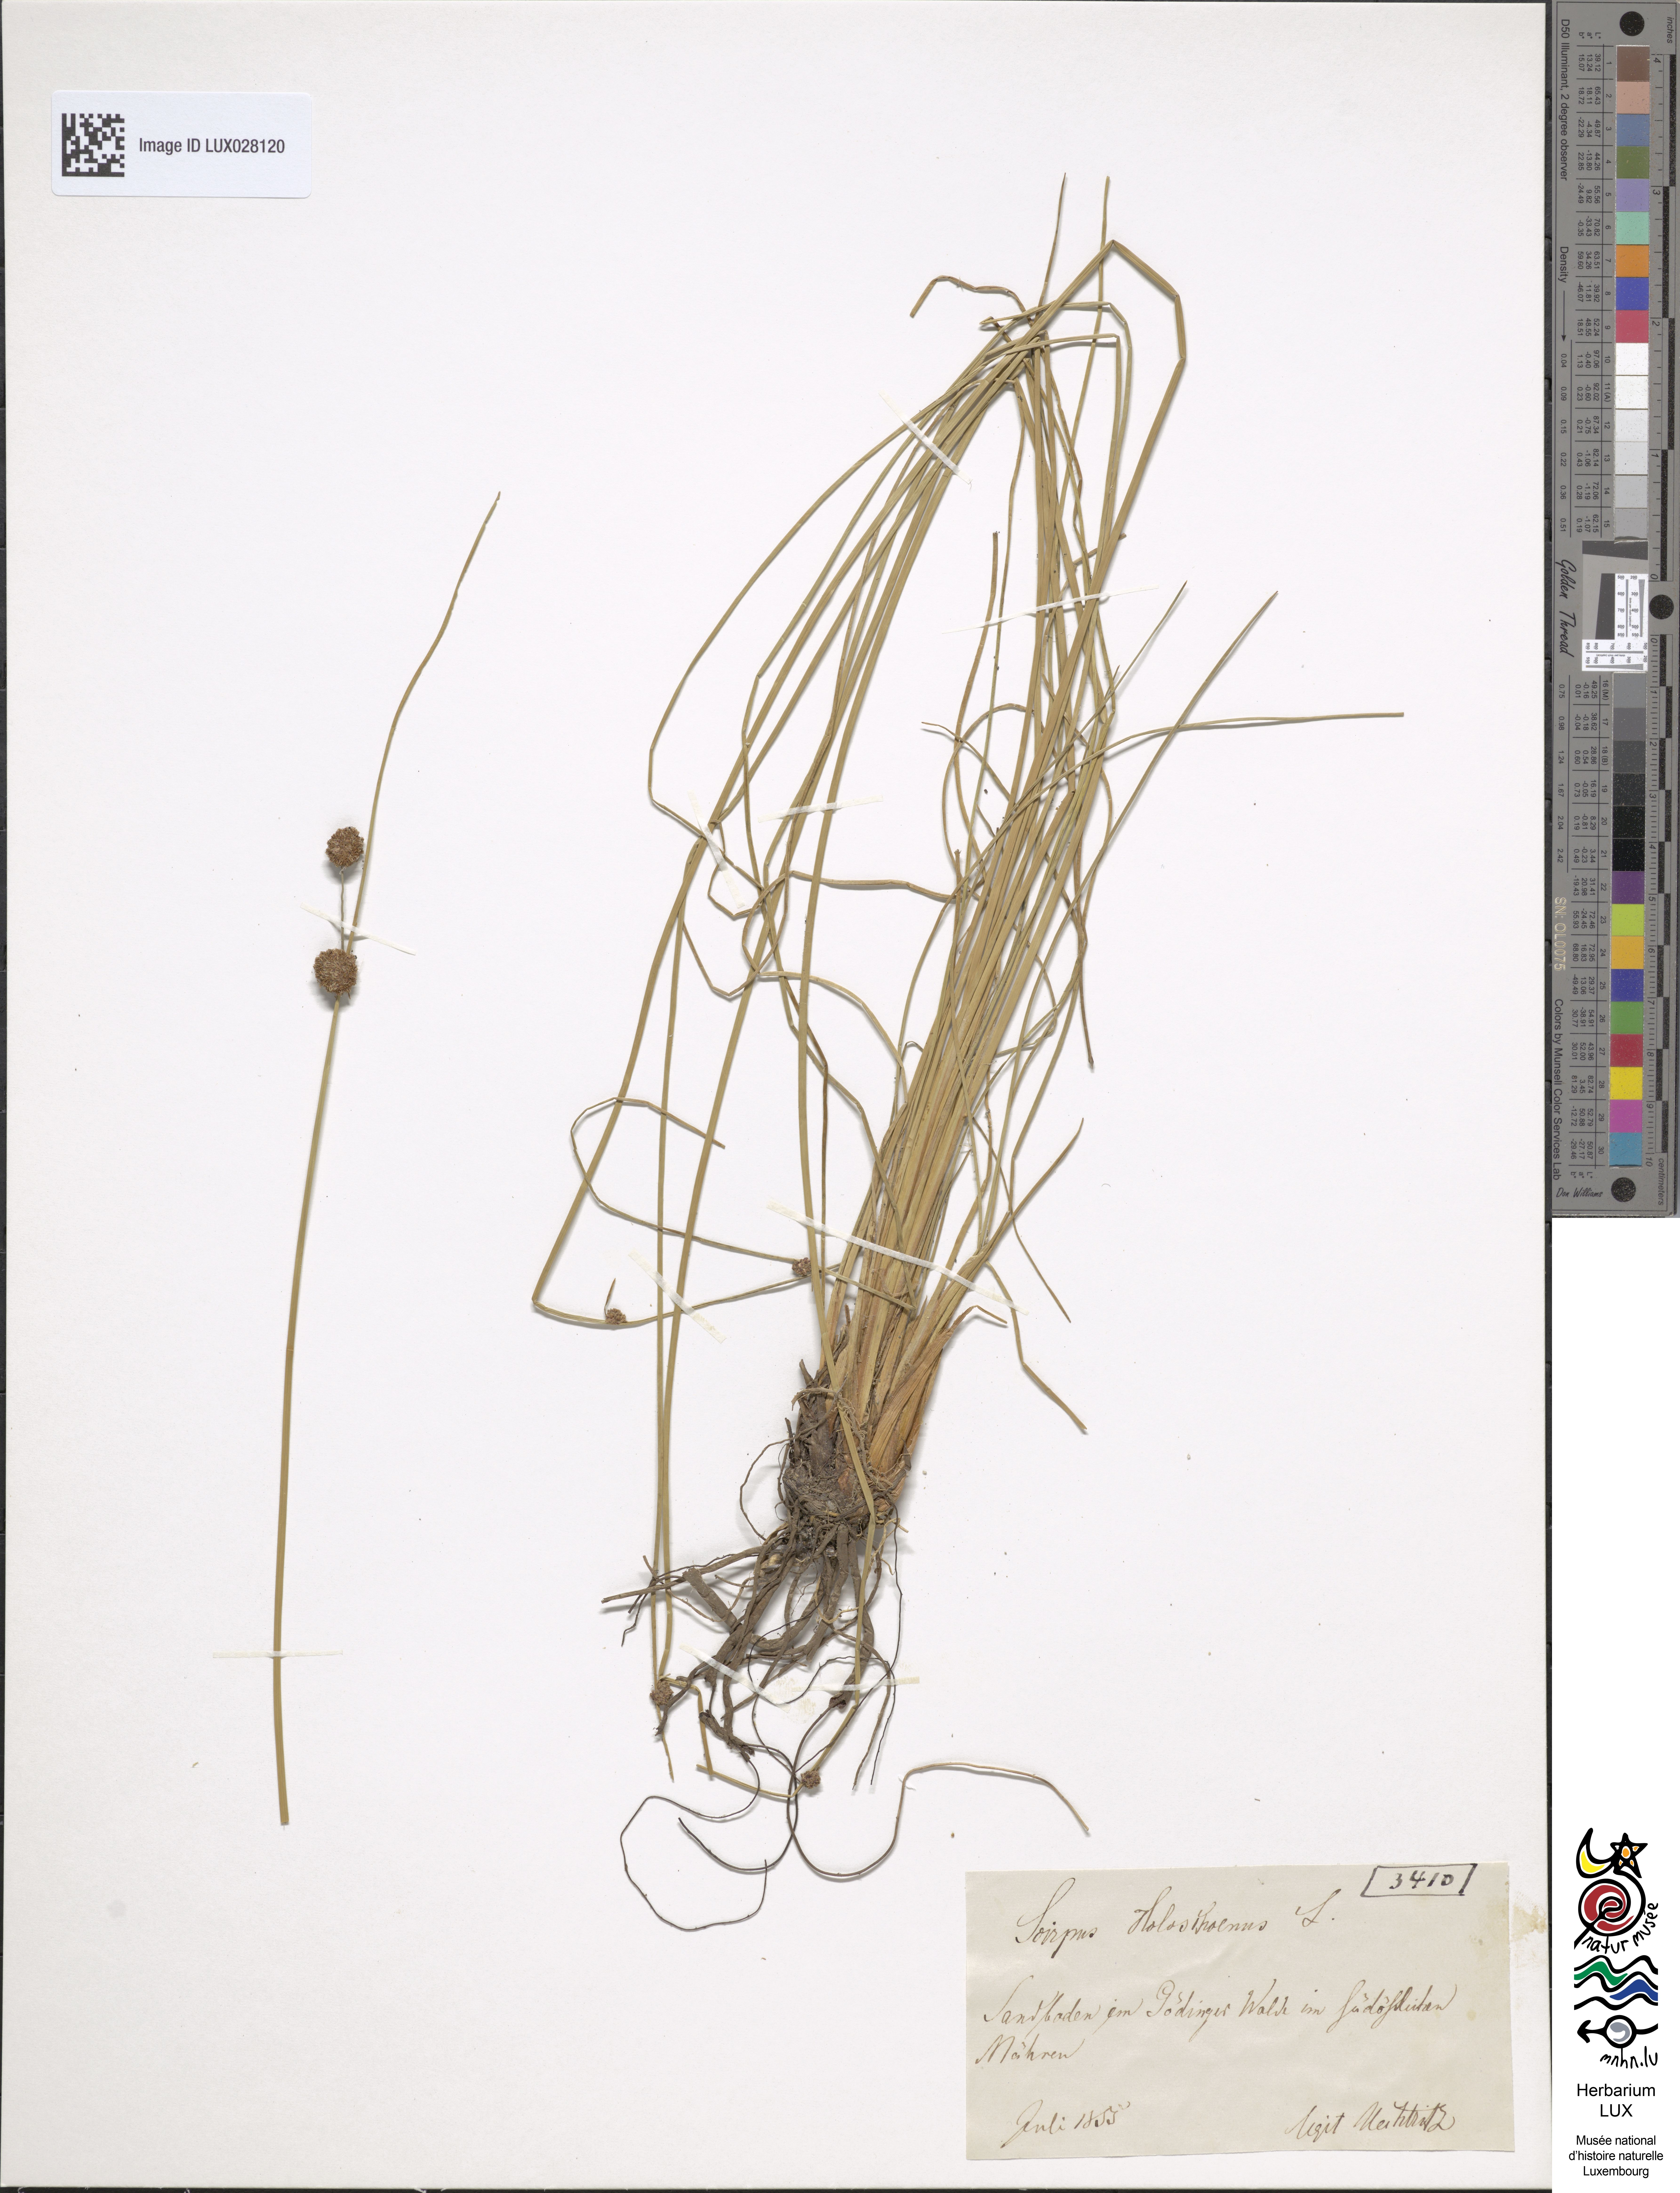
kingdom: Plantae
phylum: Tracheophyta
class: Liliopsida
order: Poales
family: Cyperaceae
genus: Scirpoides
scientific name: Scirpoides holoschoenus
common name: Round-headed club-rush
